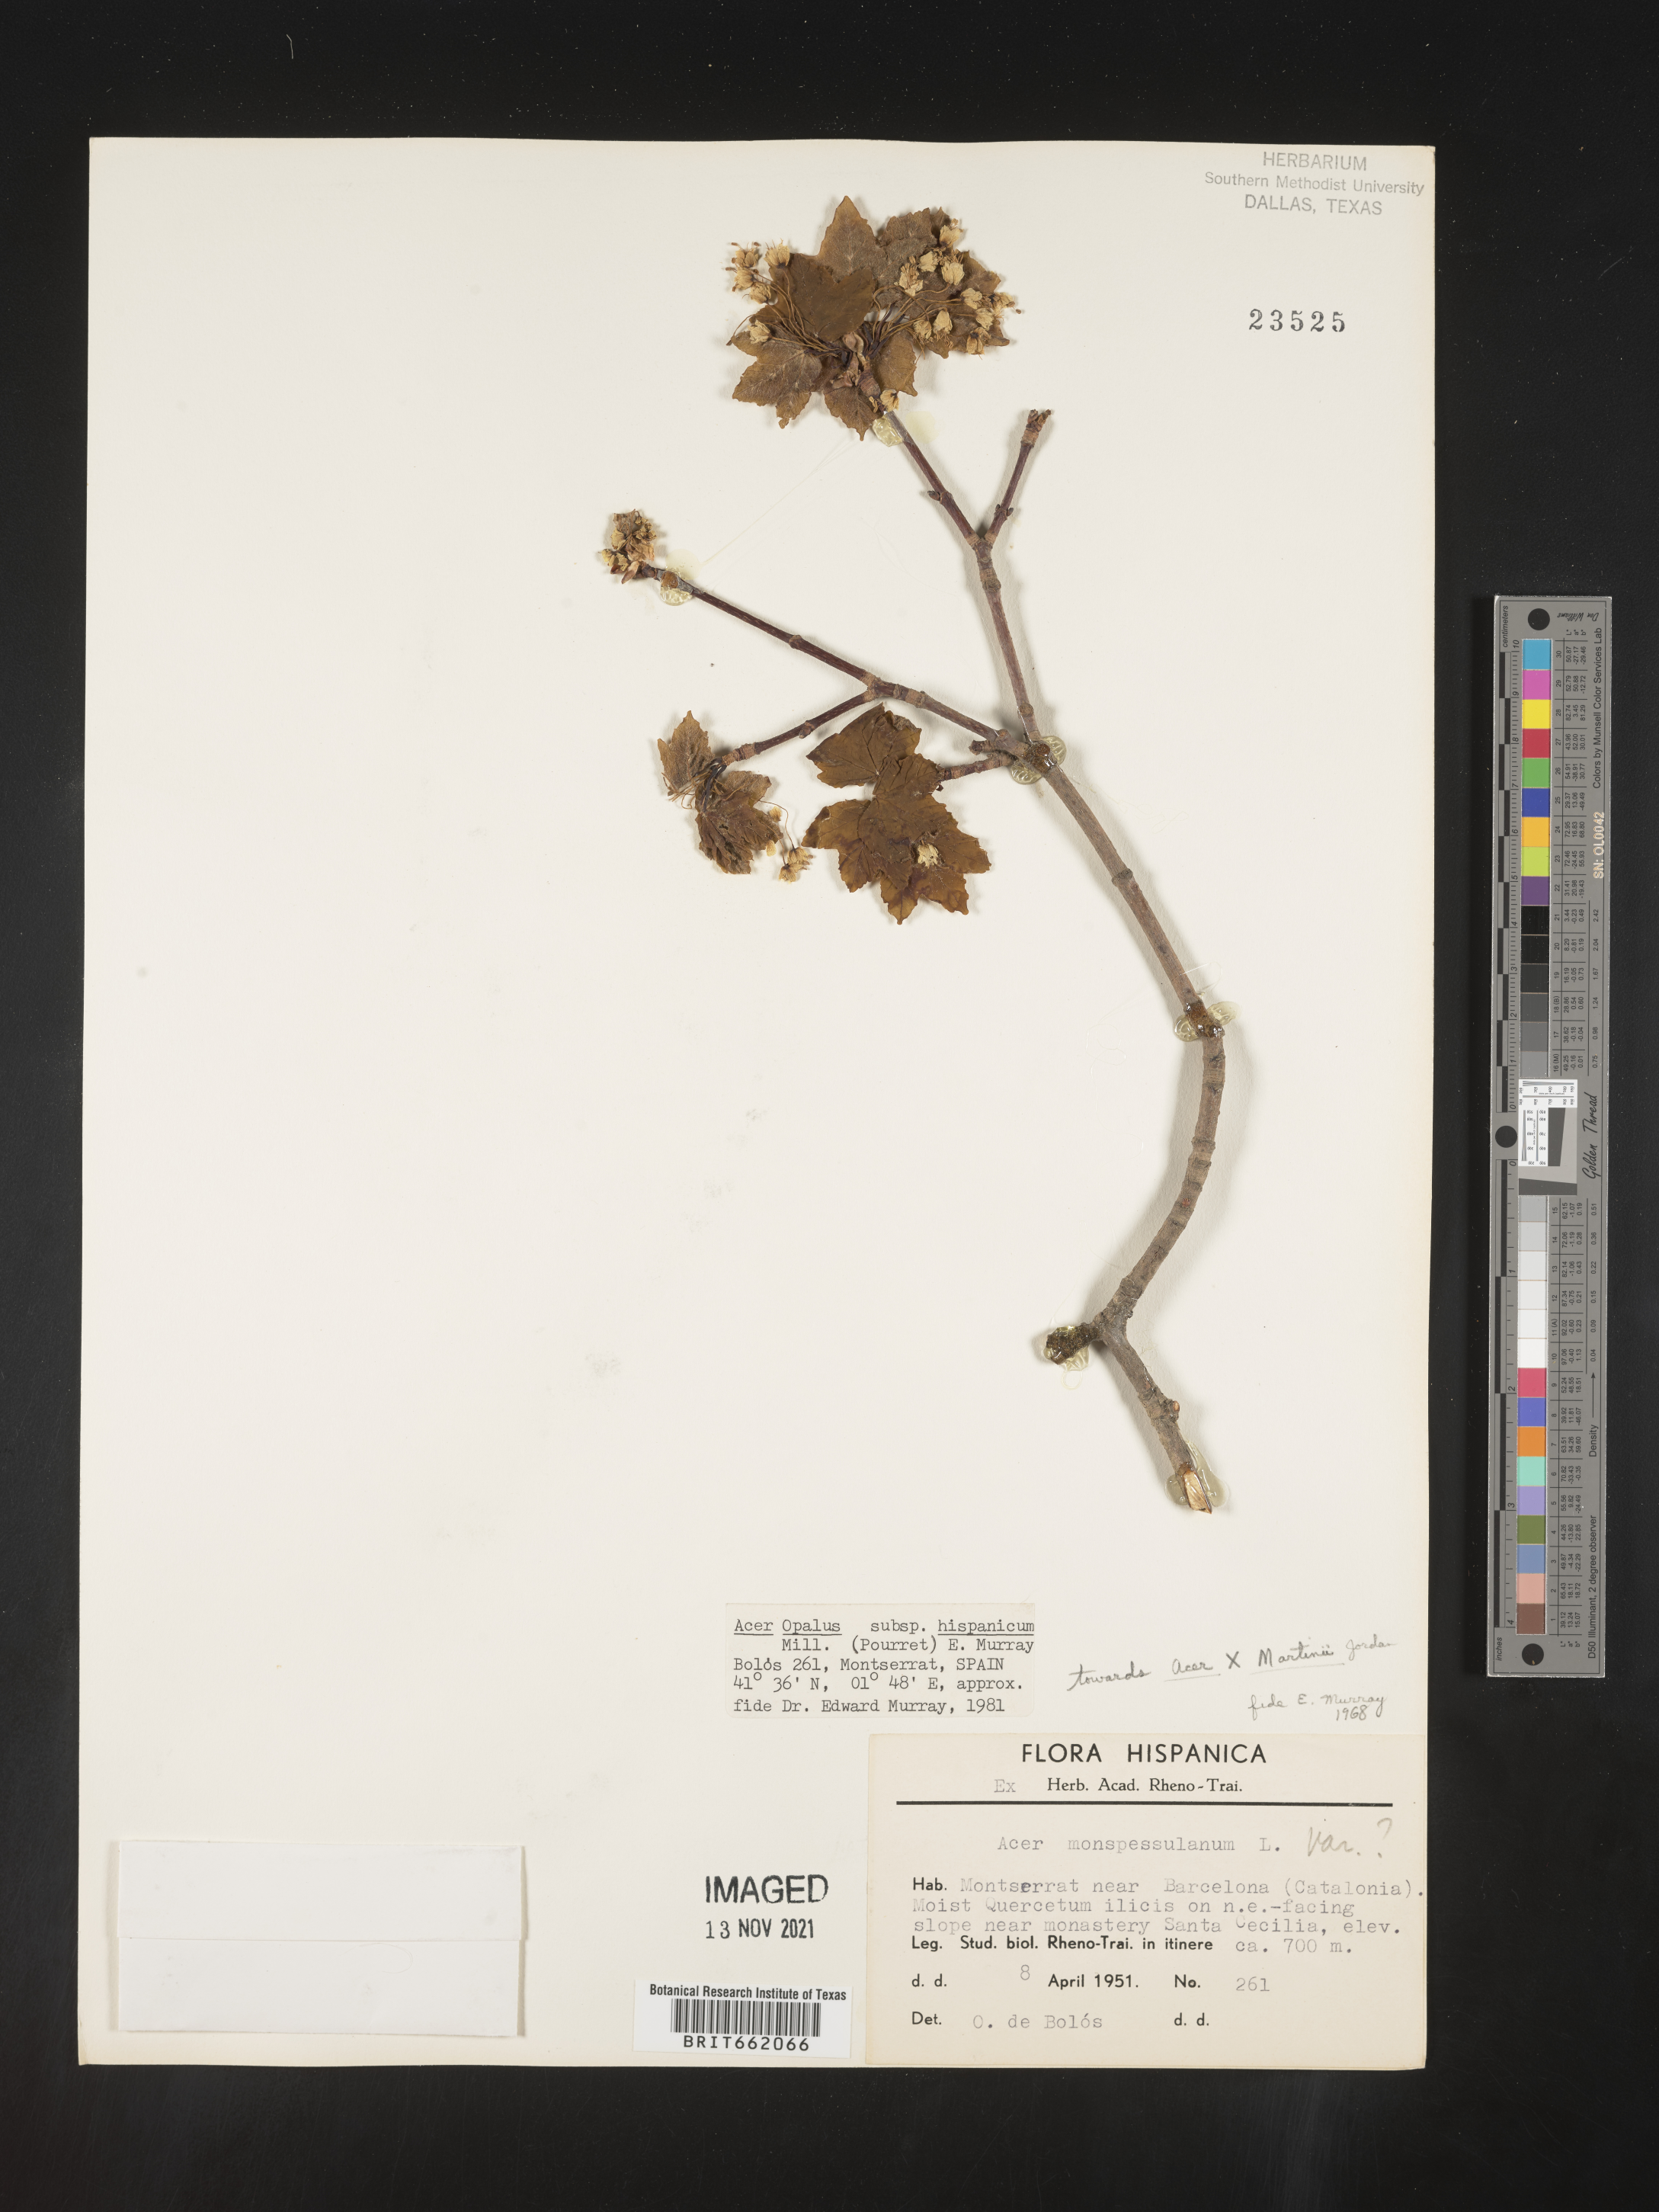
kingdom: Plantae
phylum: Tracheophyta
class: Magnoliopsida
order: Sapindales
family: Sapindaceae
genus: Acer
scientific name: Acer
